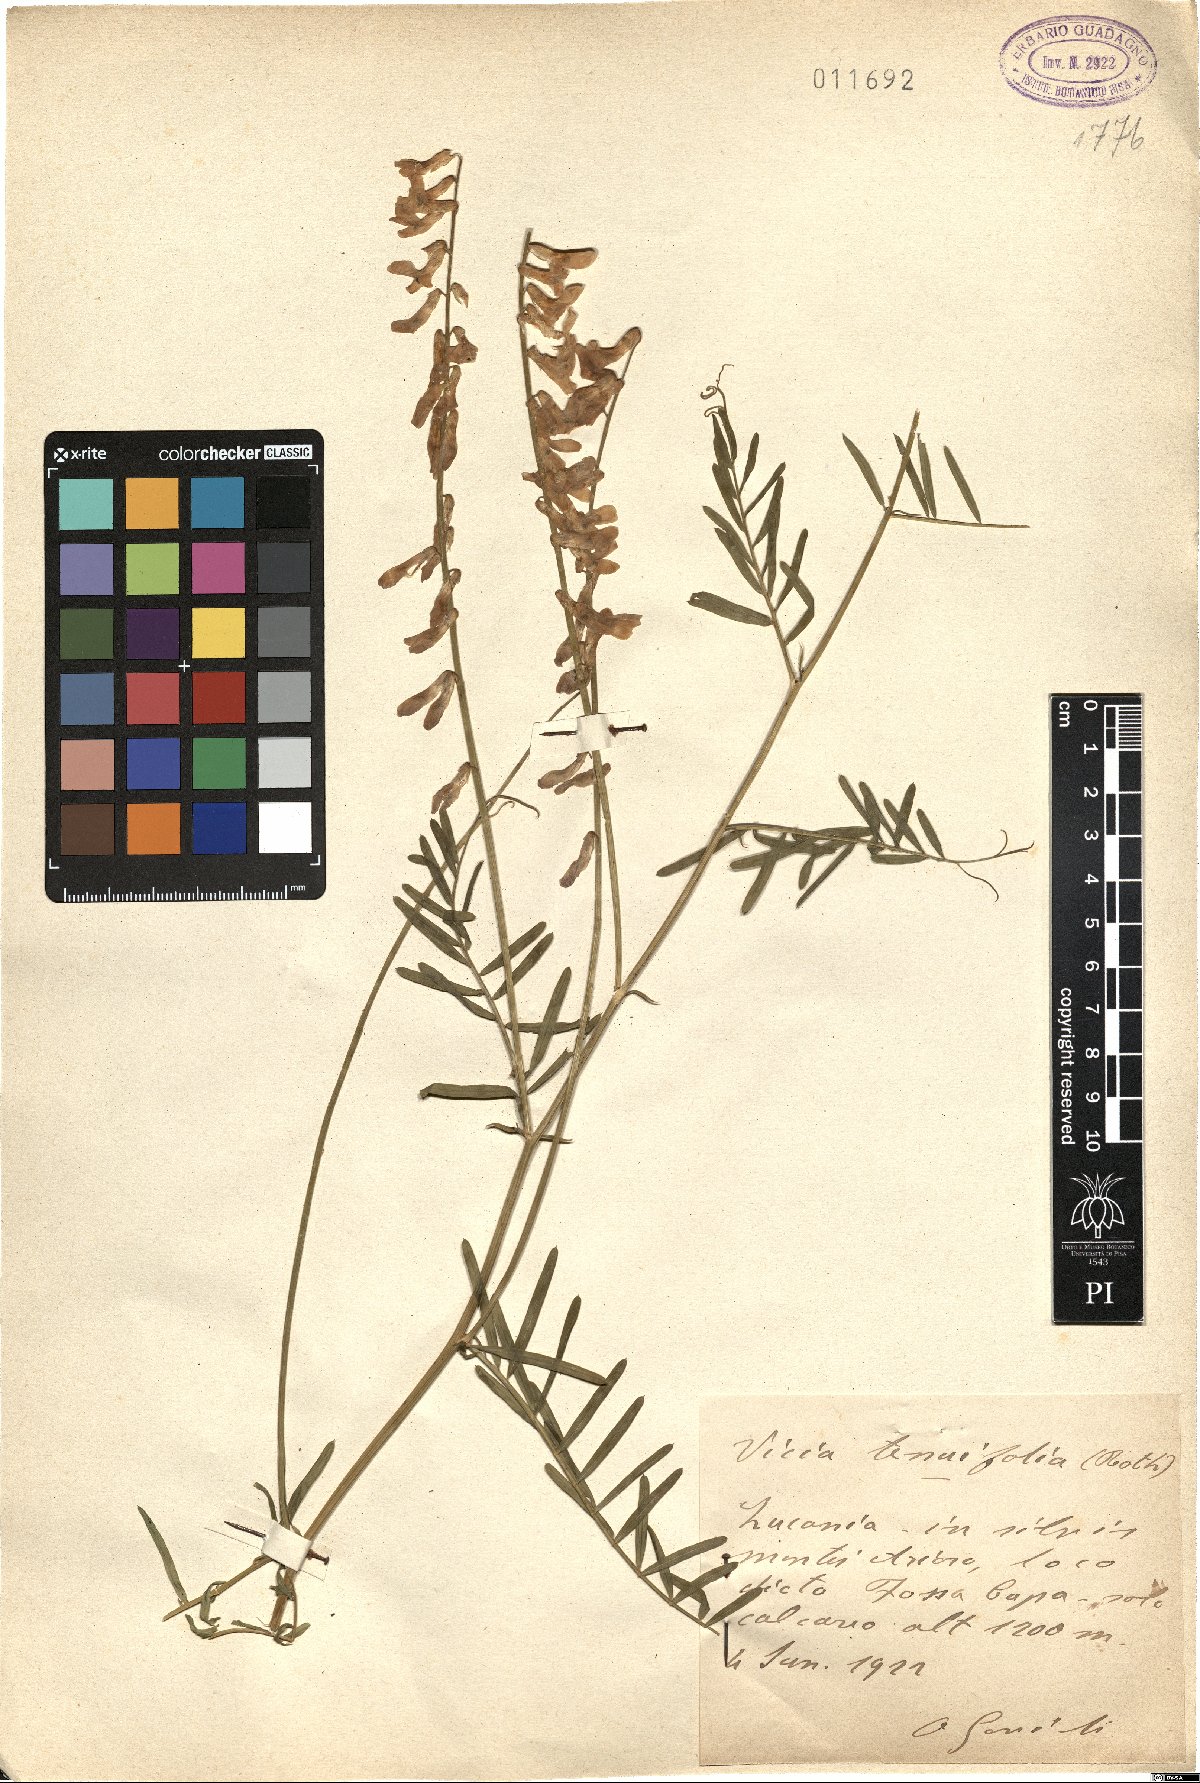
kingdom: Plantae
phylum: Tracheophyta
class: Magnoliopsida
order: Fabales
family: Fabaceae
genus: Vicia
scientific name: Vicia tenuifolia
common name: Fine-leaved vetch
